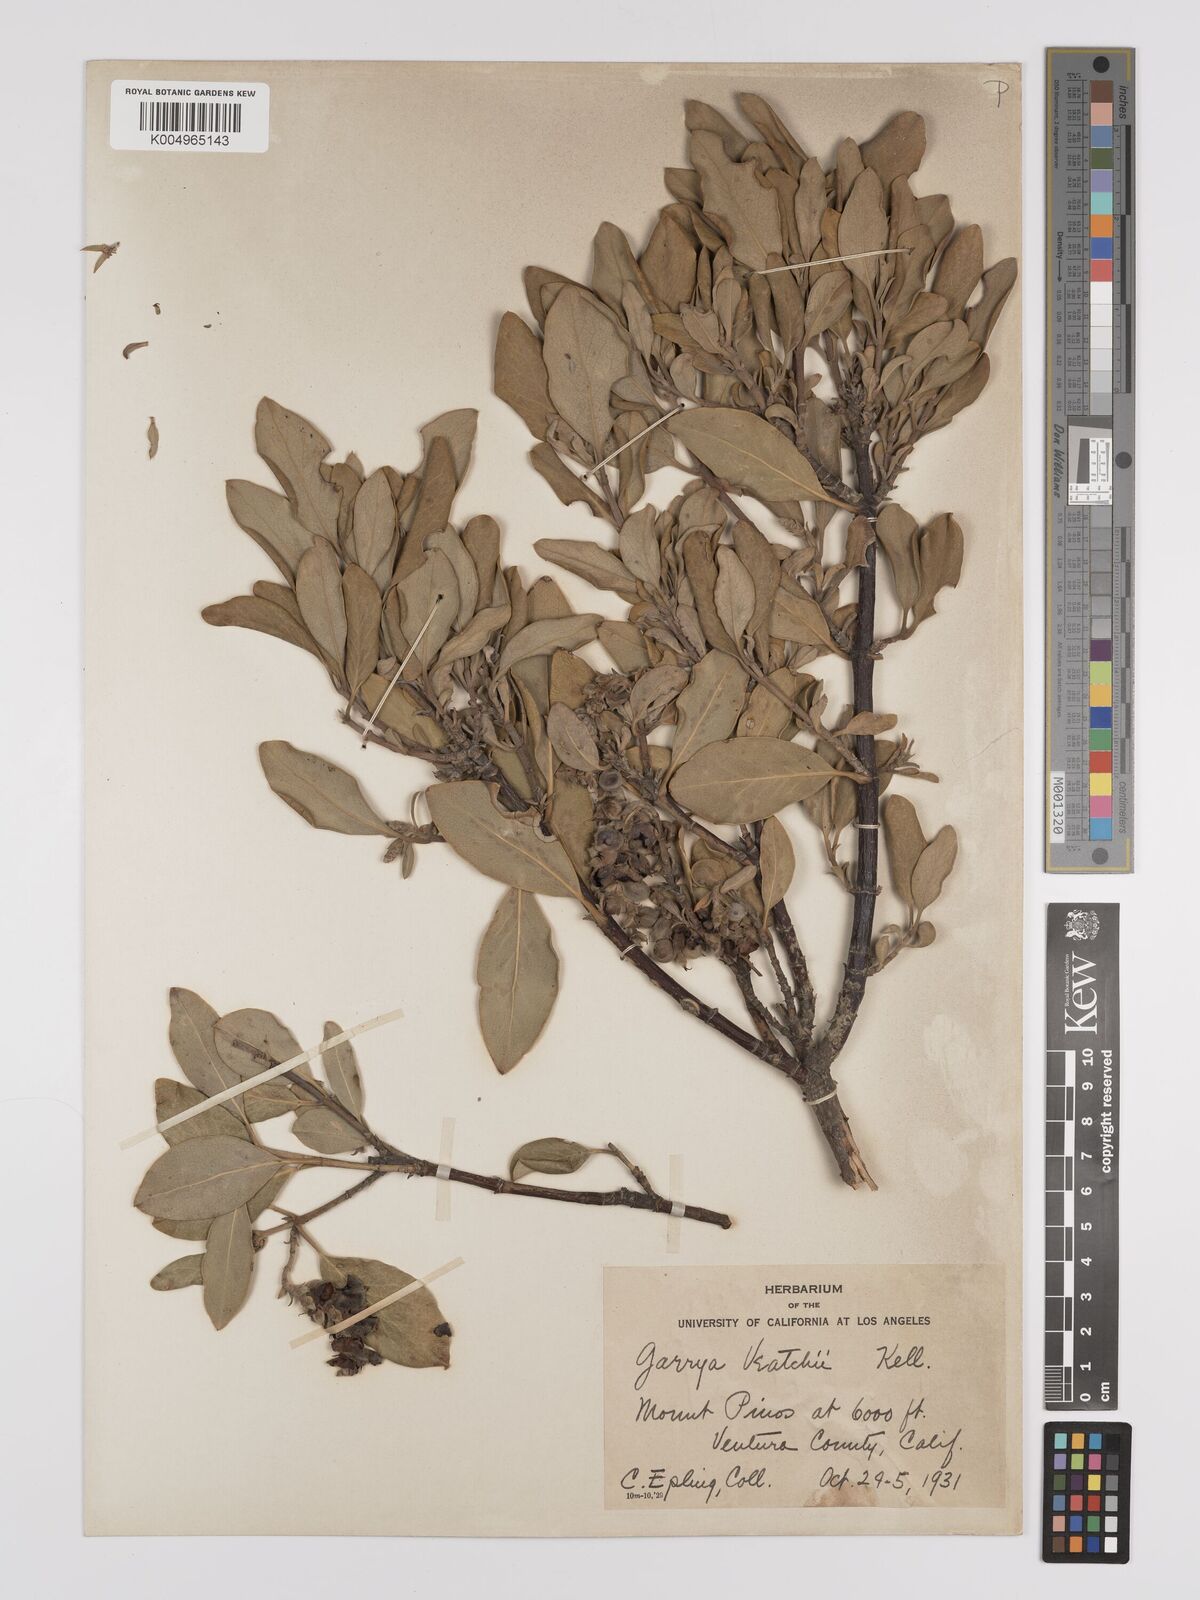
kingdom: Plantae
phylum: Tracheophyta
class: Magnoliopsida
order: Garryales
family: Garryaceae
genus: Garrya
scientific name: Garrya veatchii
